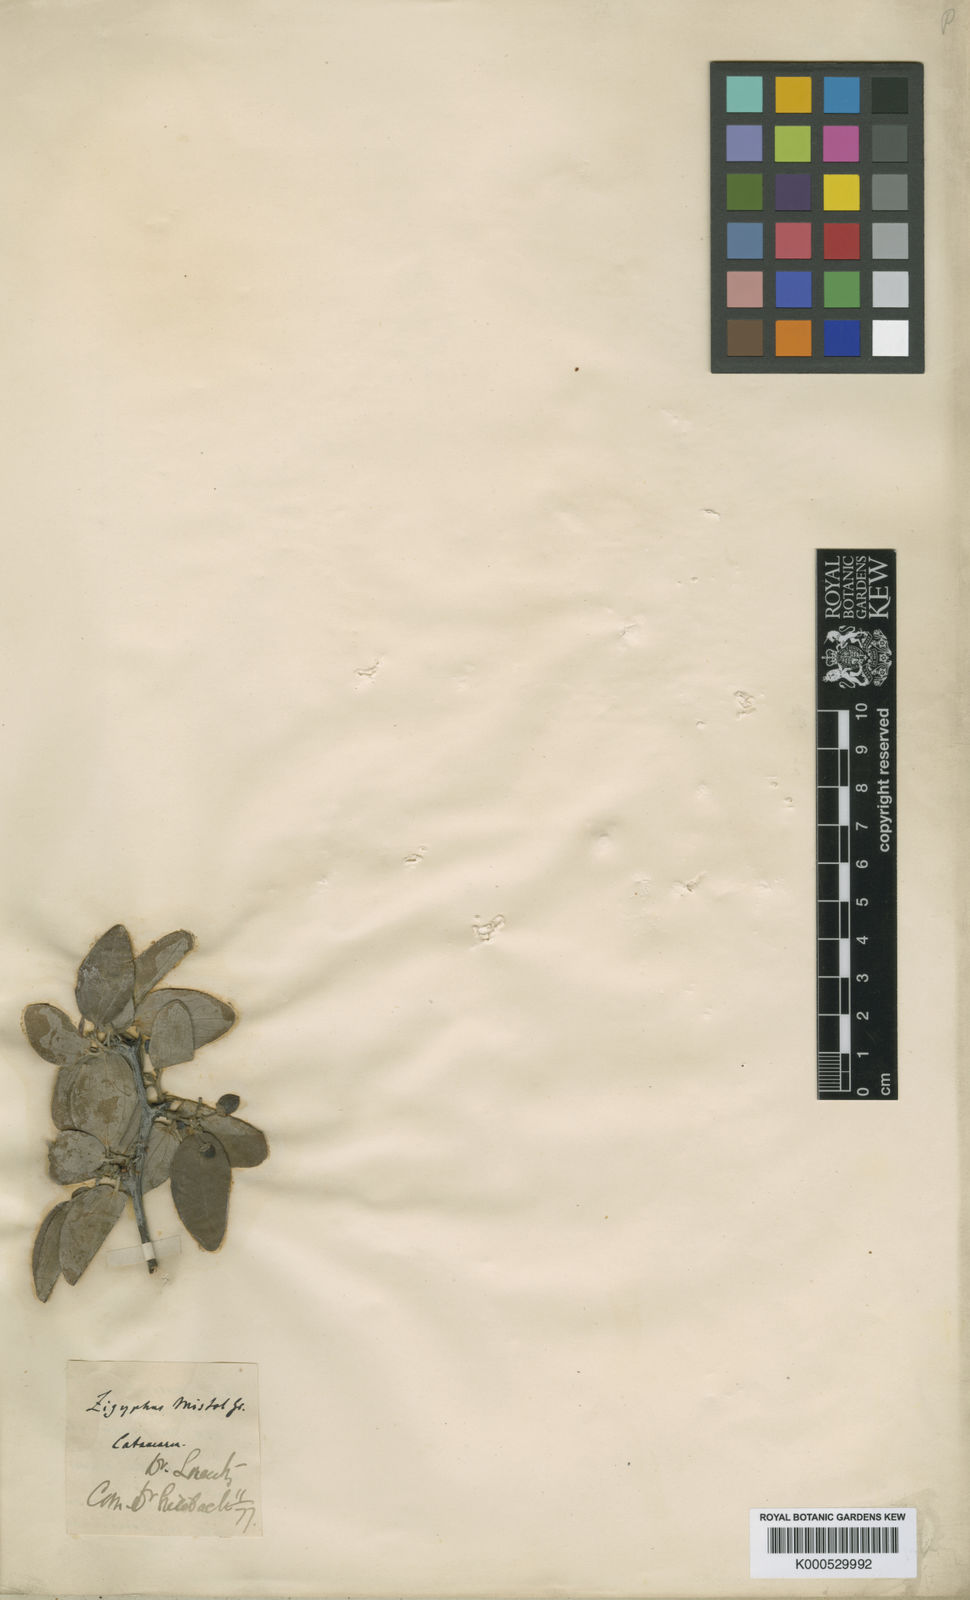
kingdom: Plantae
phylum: Tracheophyta
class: Magnoliopsida
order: Rosales
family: Rhamnaceae
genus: Sarcomphalus
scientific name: Sarcomphalus mistol
